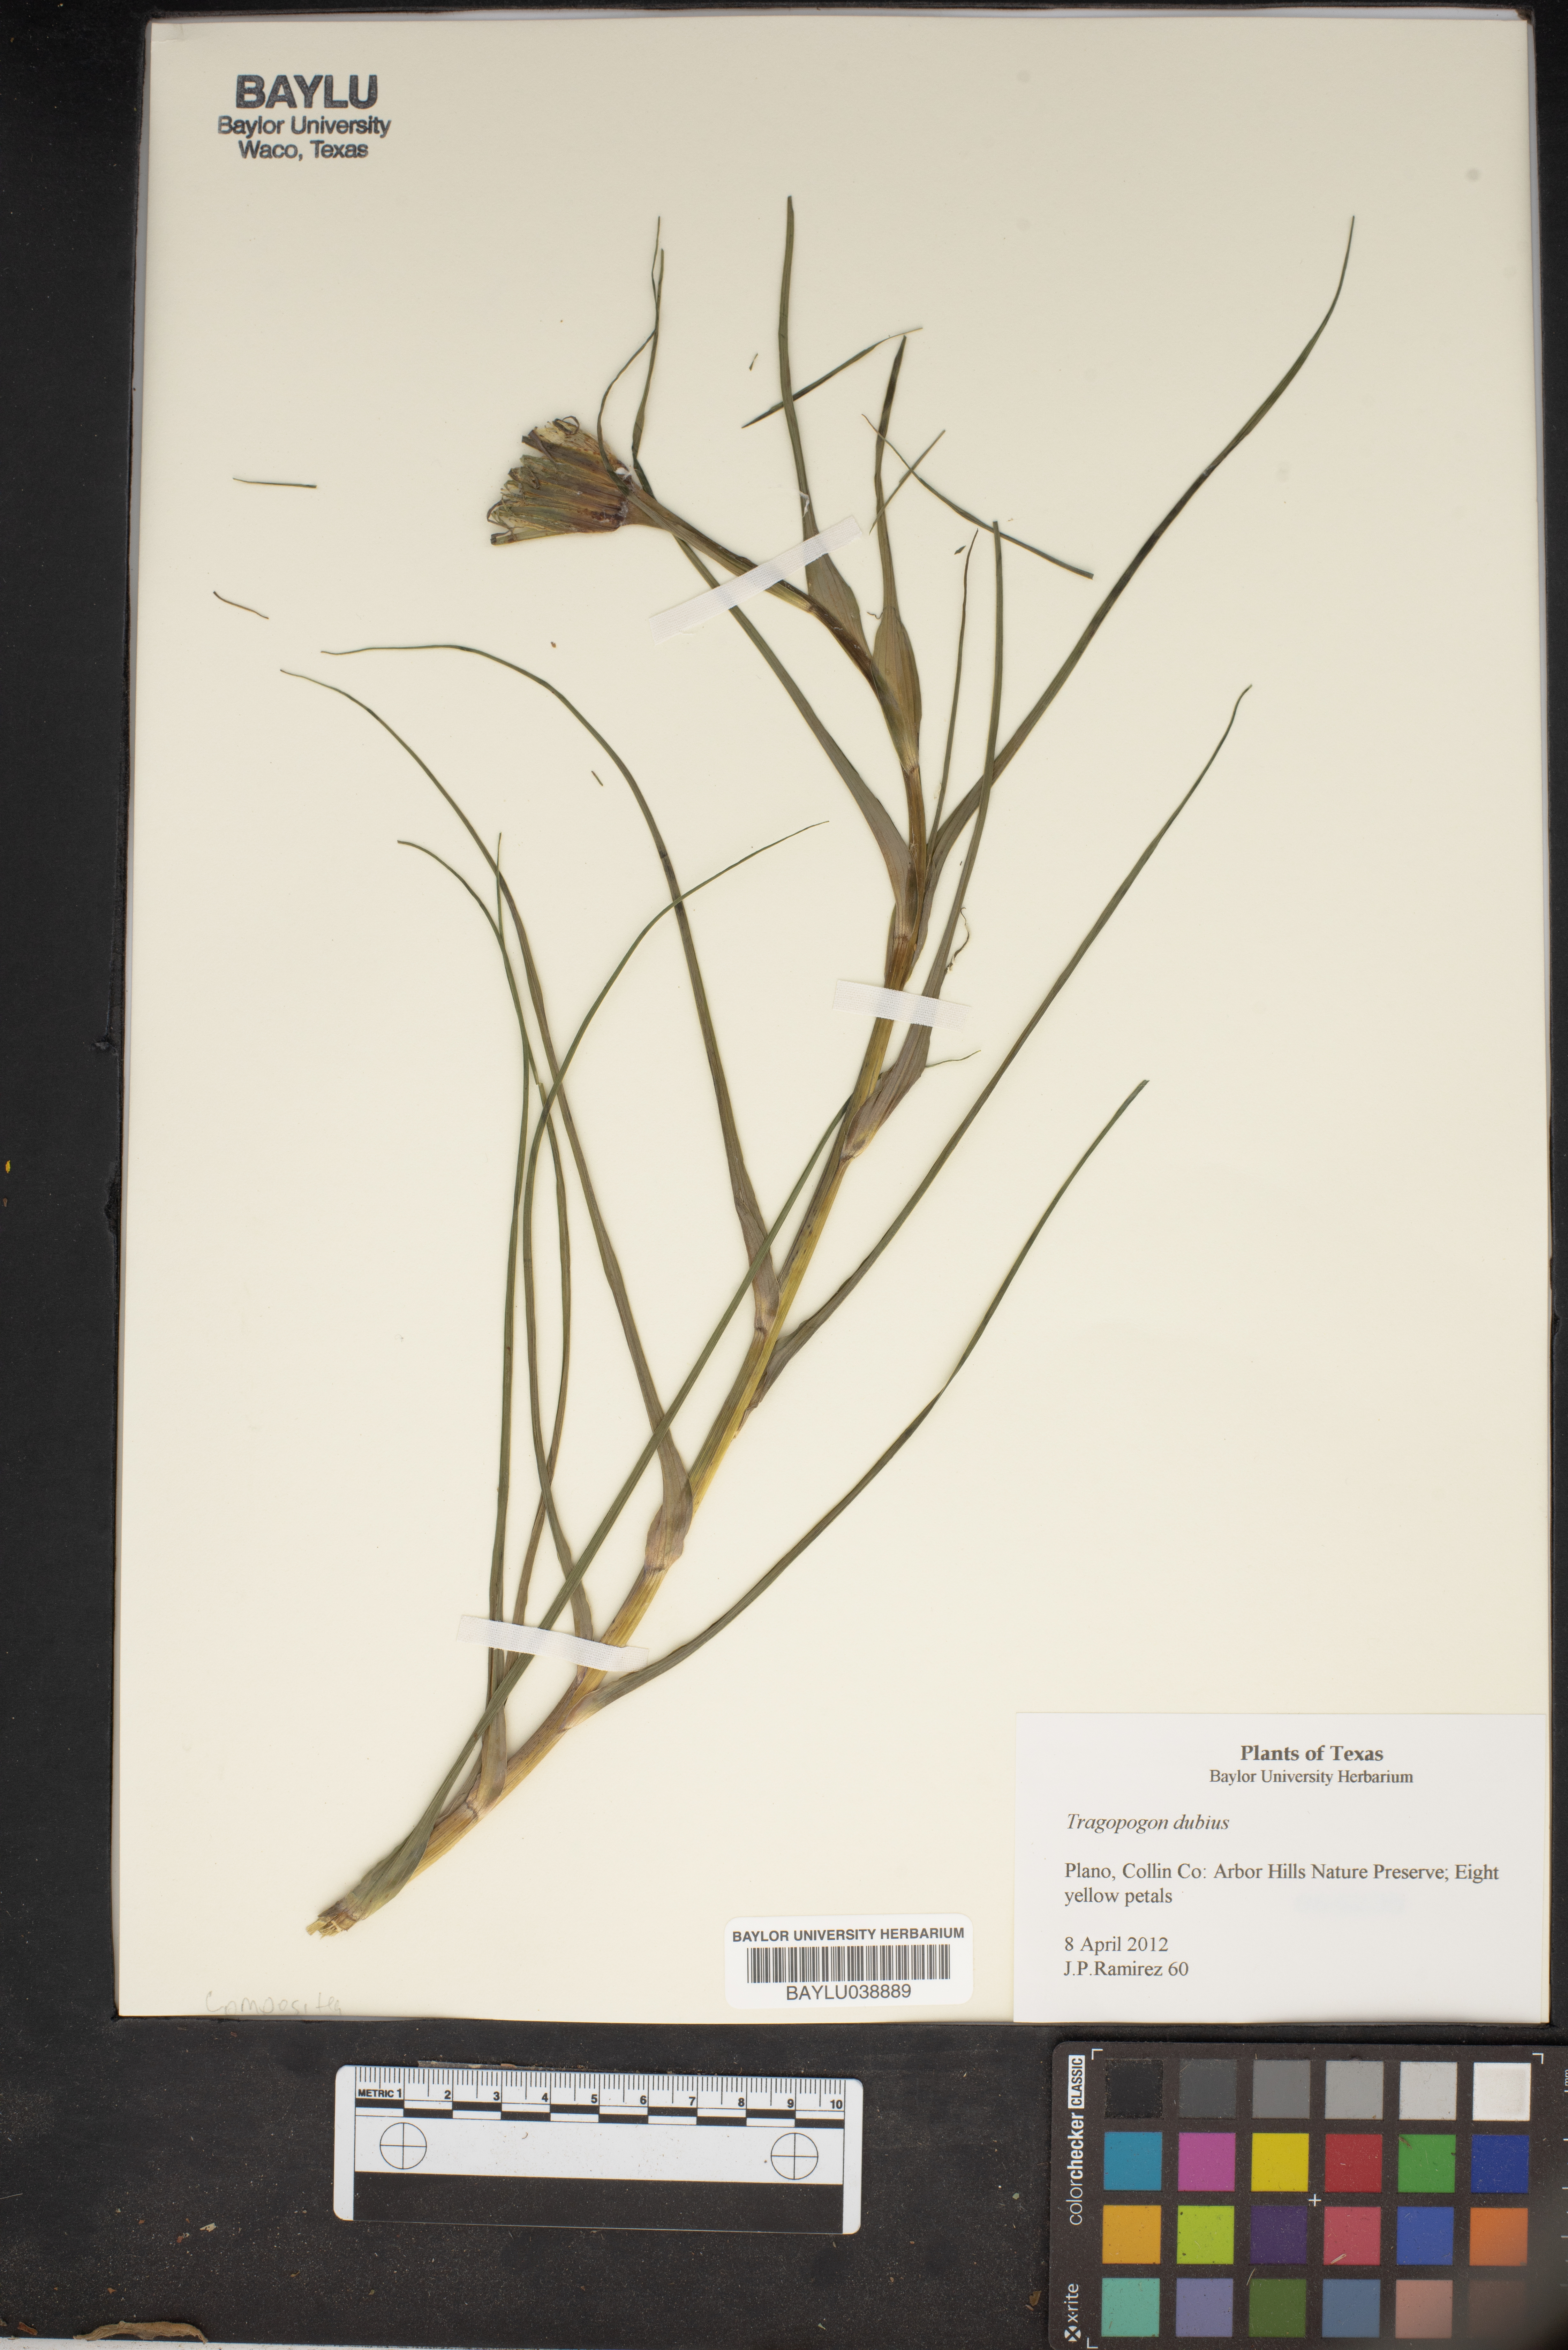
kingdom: Plantae
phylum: Tracheophyta
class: Magnoliopsida
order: Asterales
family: Asteraceae
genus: Tragopogon
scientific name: Tragopogon dubius
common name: Yellow salsify
